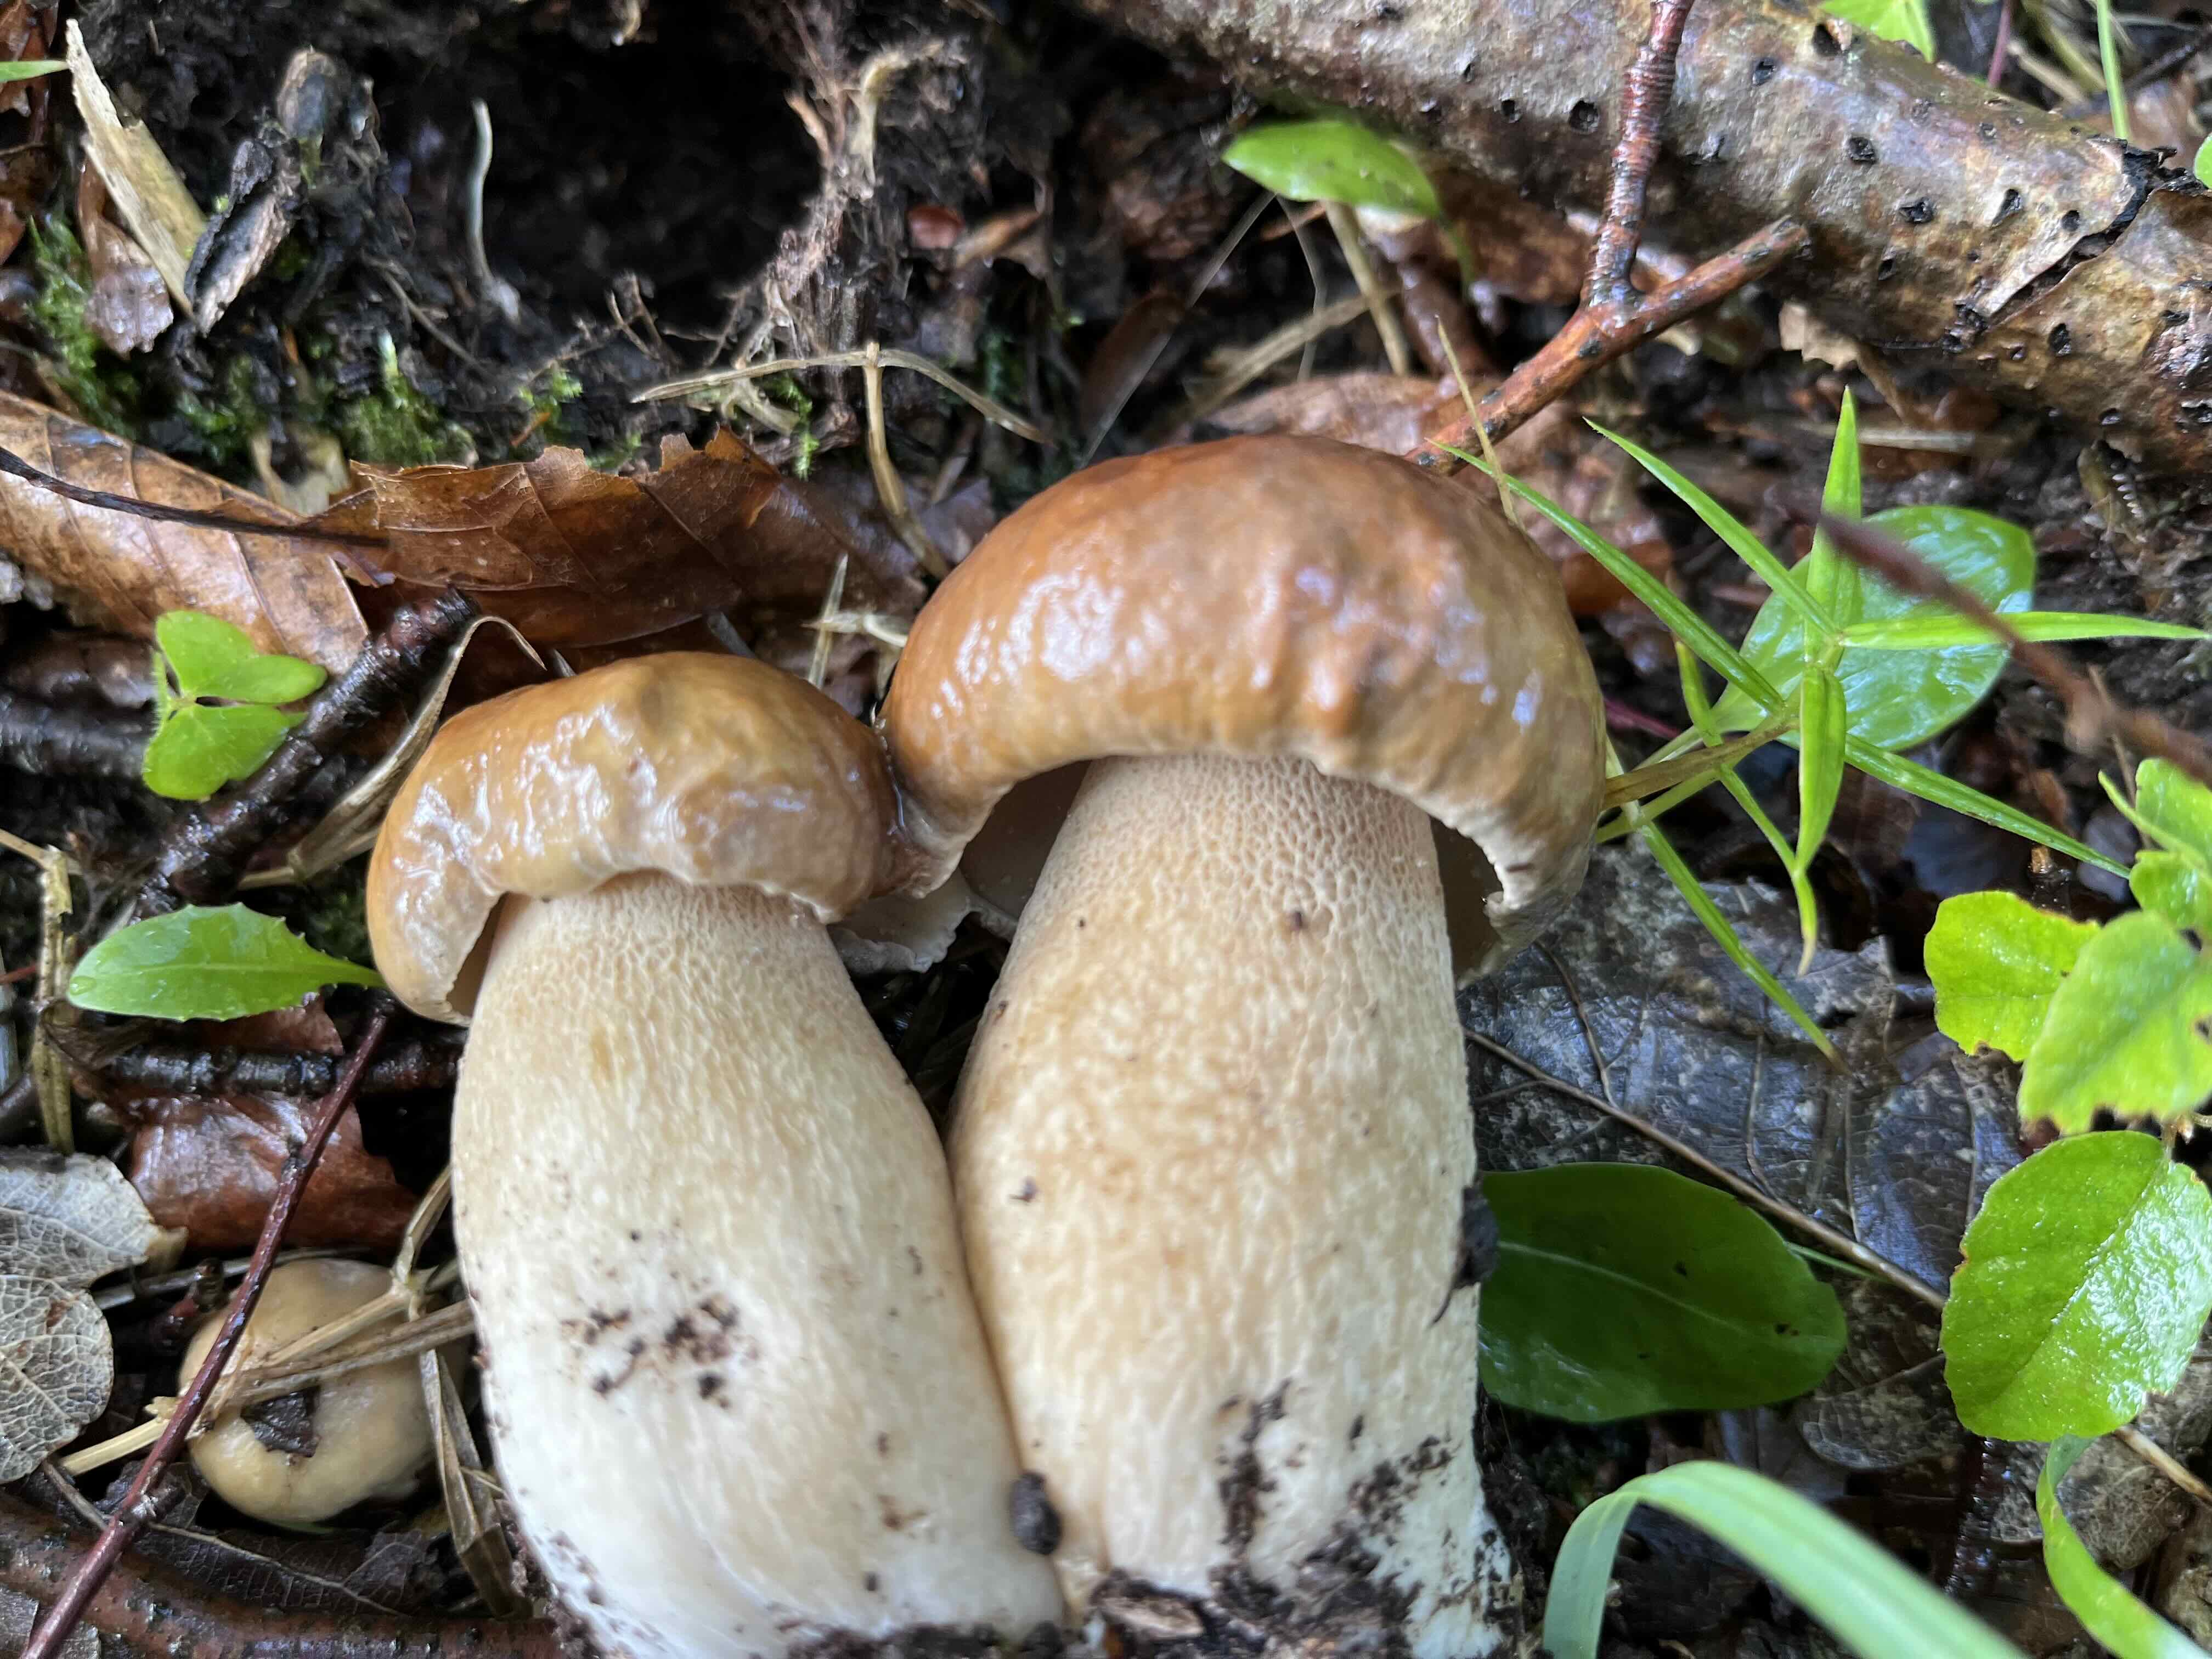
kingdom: Fungi
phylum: Basidiomycota
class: Agaricomycetes
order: Boletales
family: Boletaceae
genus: Boletus
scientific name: Boletus reticulatus
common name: sommer-rørhat
